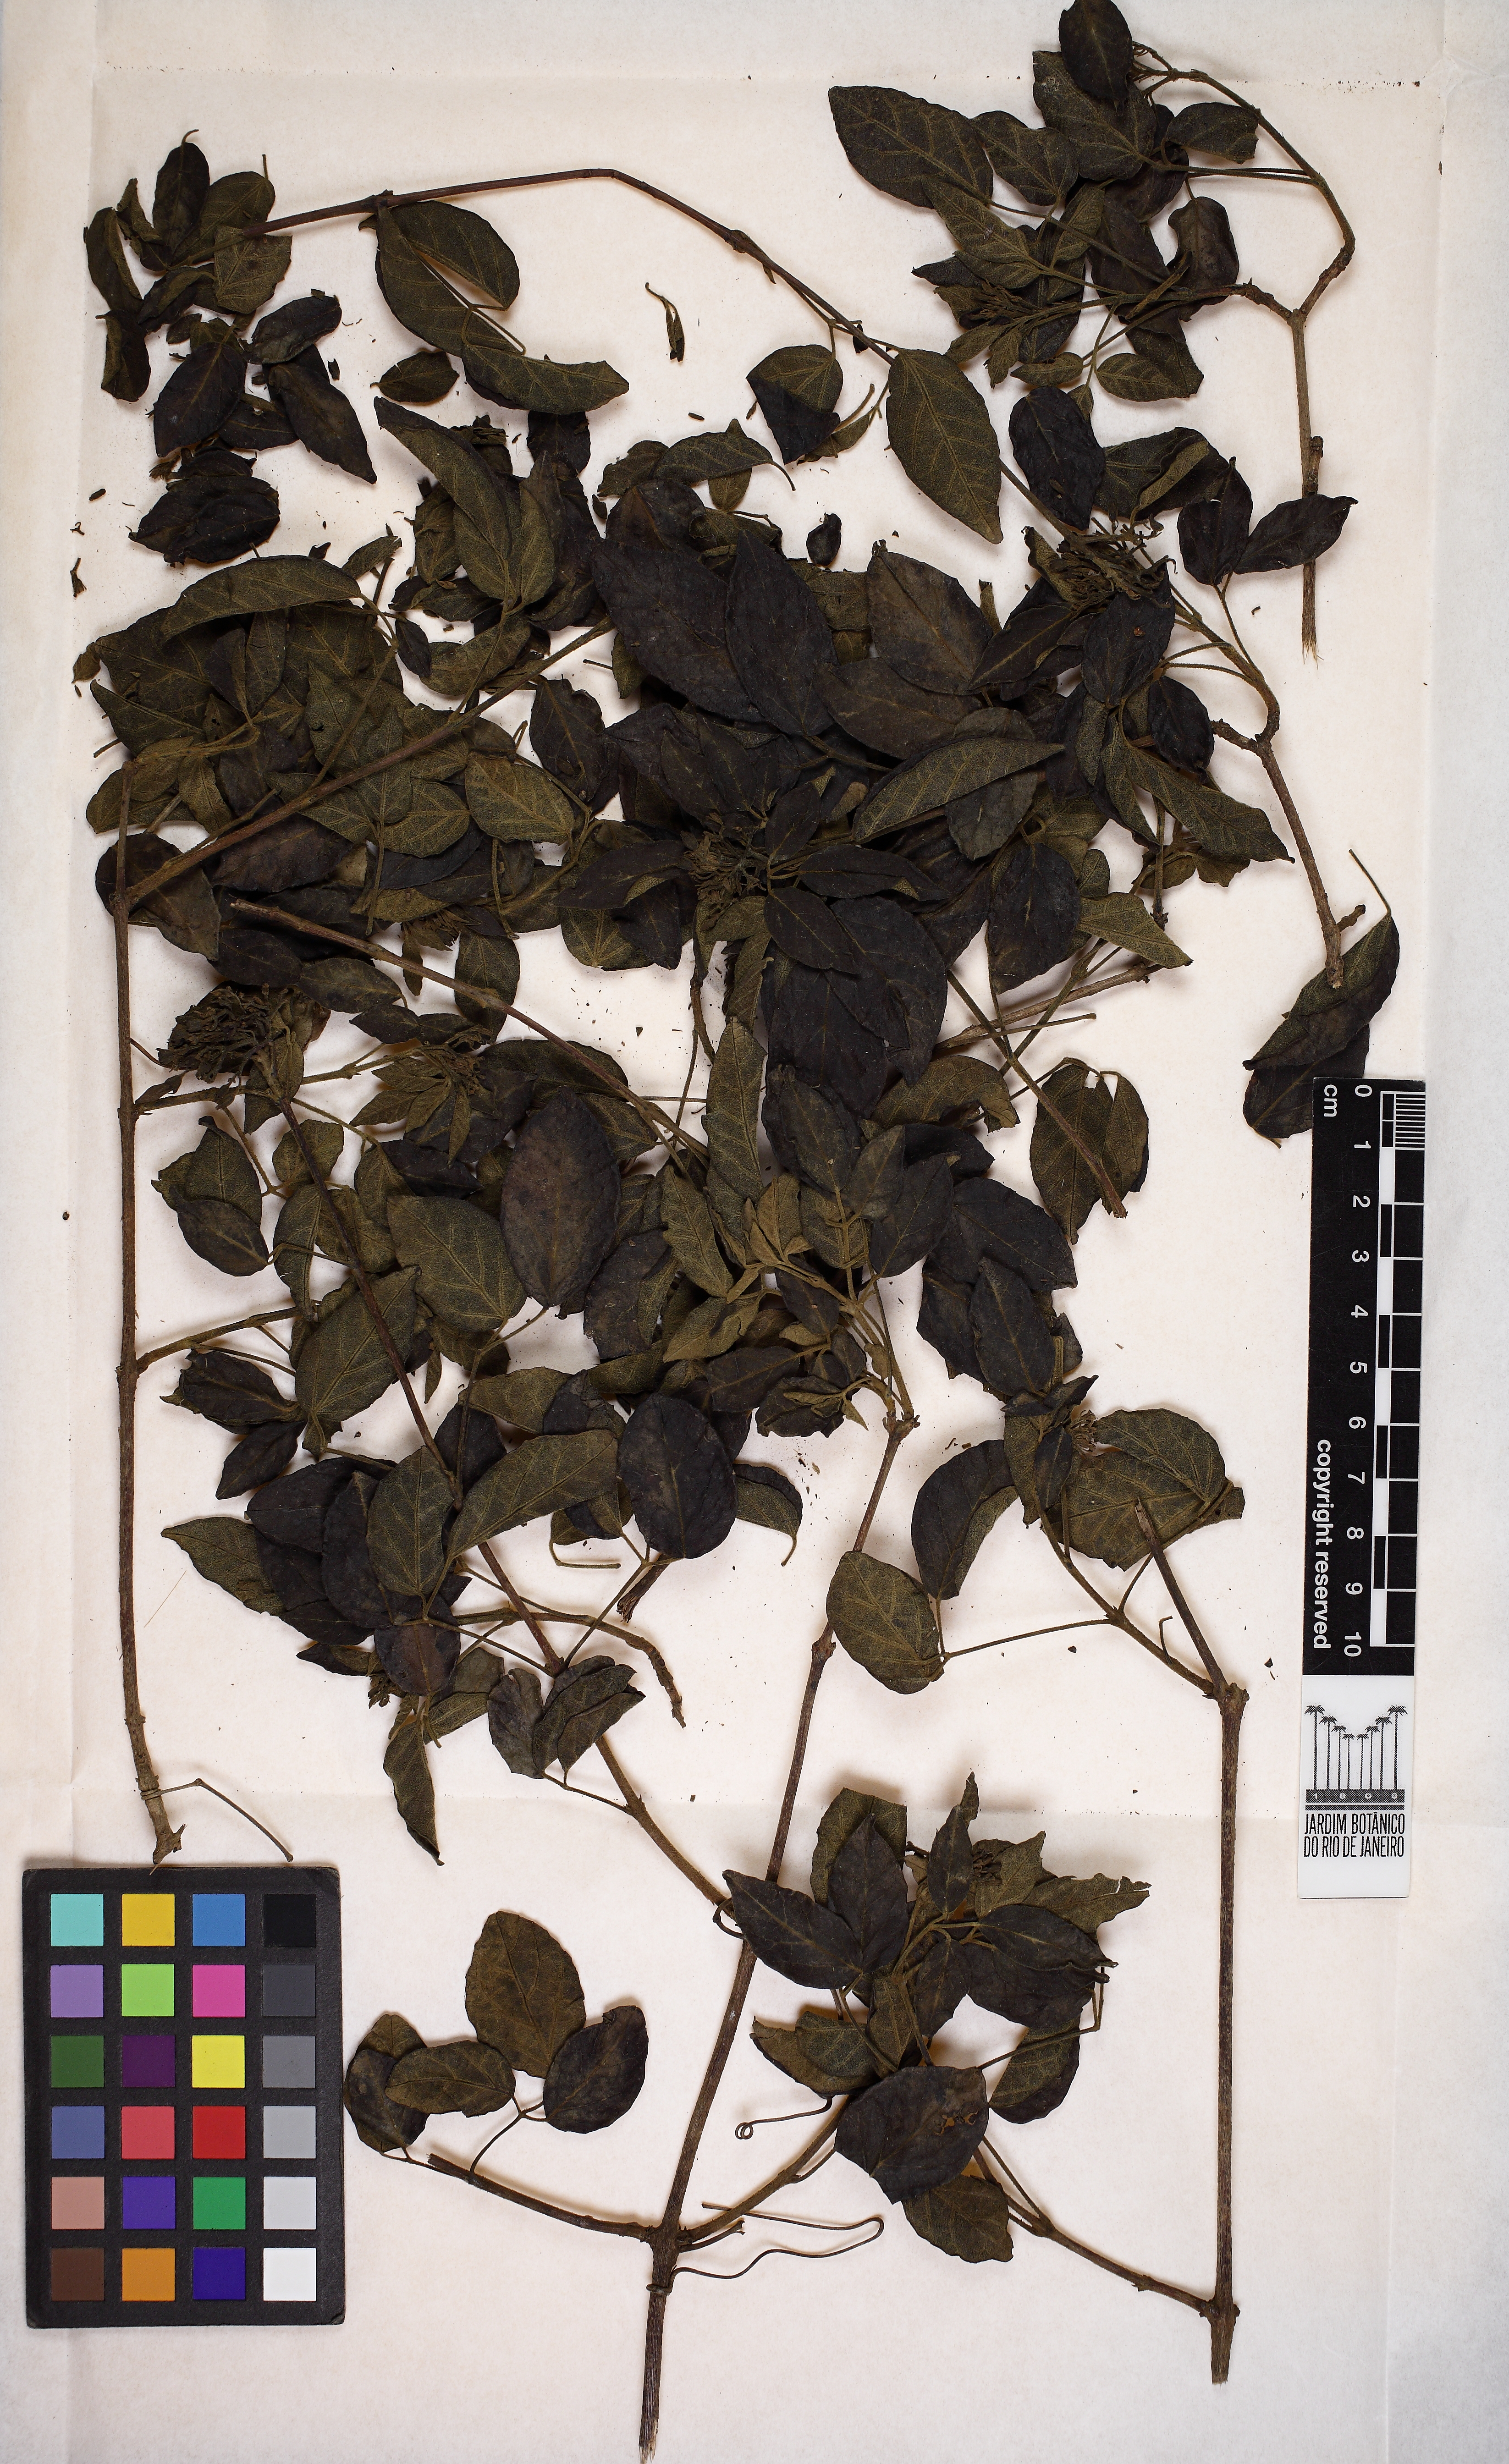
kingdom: Plantae
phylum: Tracheophyta
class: Magnoliopsida
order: Lamiales
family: Bignoniaceae
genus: Cuspidaria
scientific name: Cuspidaria multiflora
